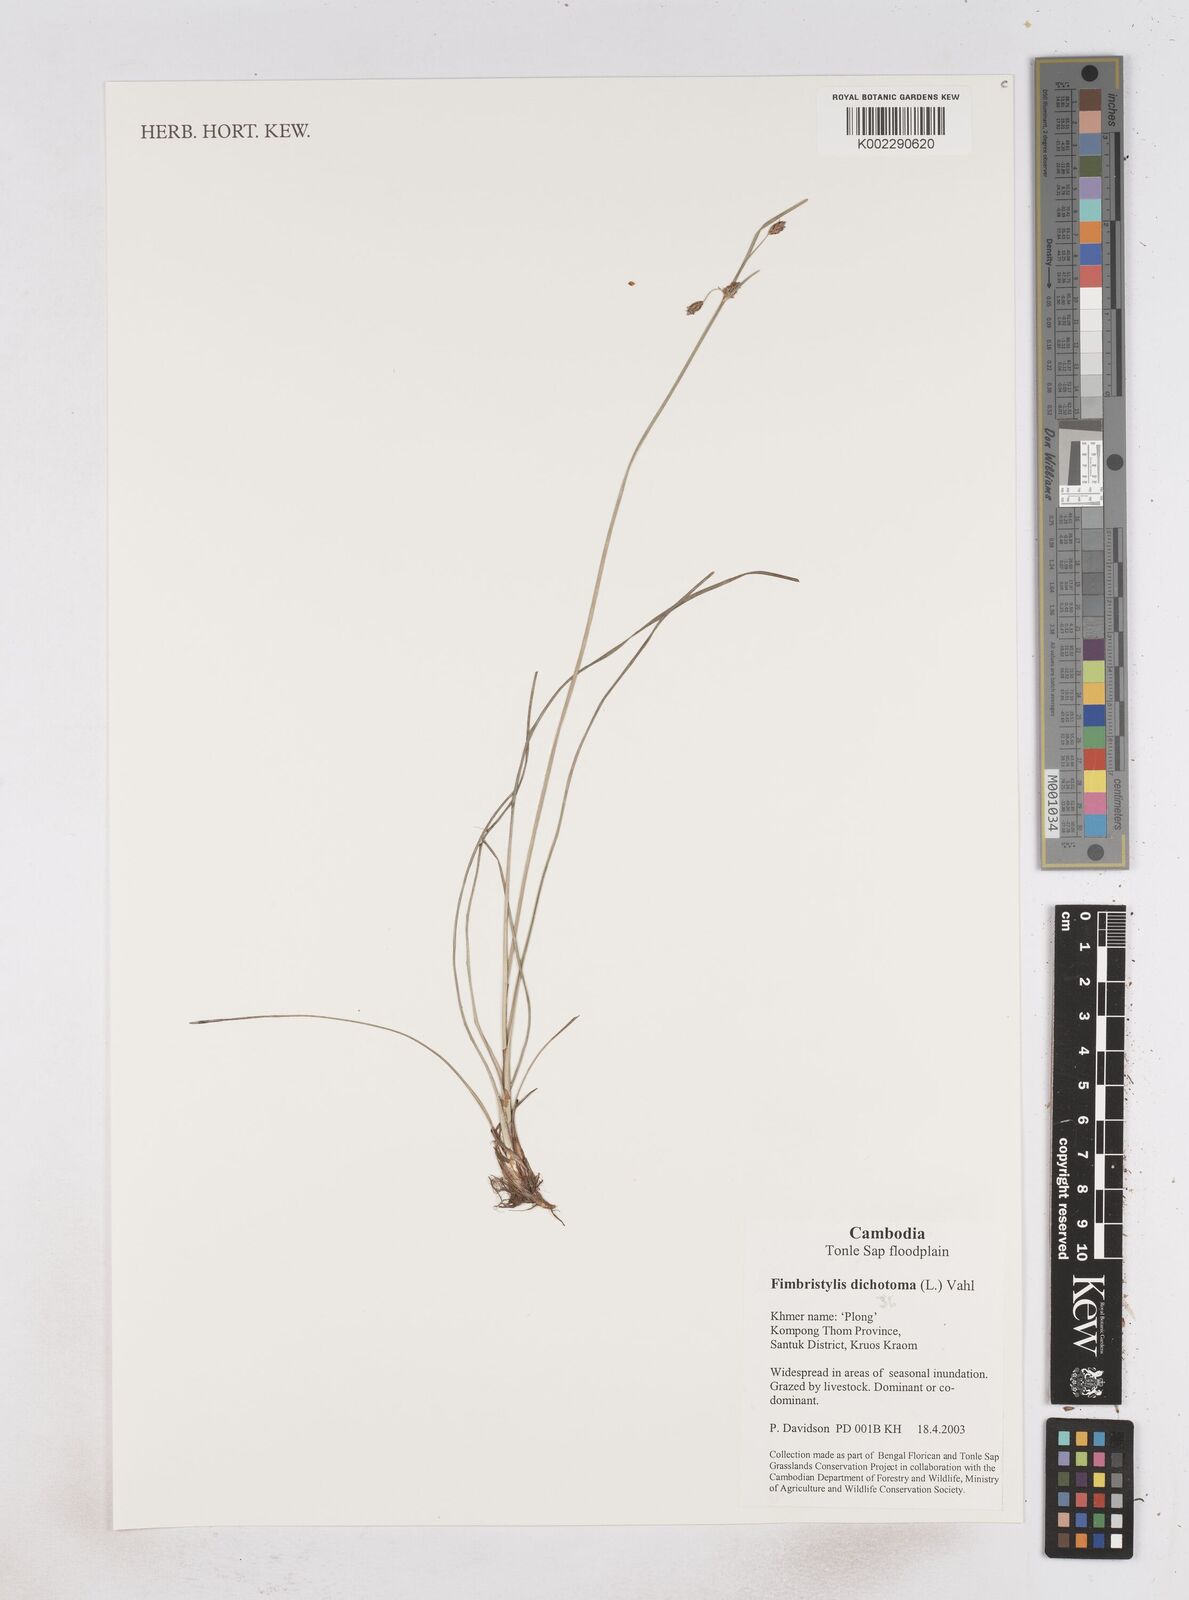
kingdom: Plantae
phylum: Tracheophyta
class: Liliopsida
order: Poales
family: Cyperaceae
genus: Fimbristylis
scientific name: Fimbristylis dichotoma
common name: Forked fimbry
